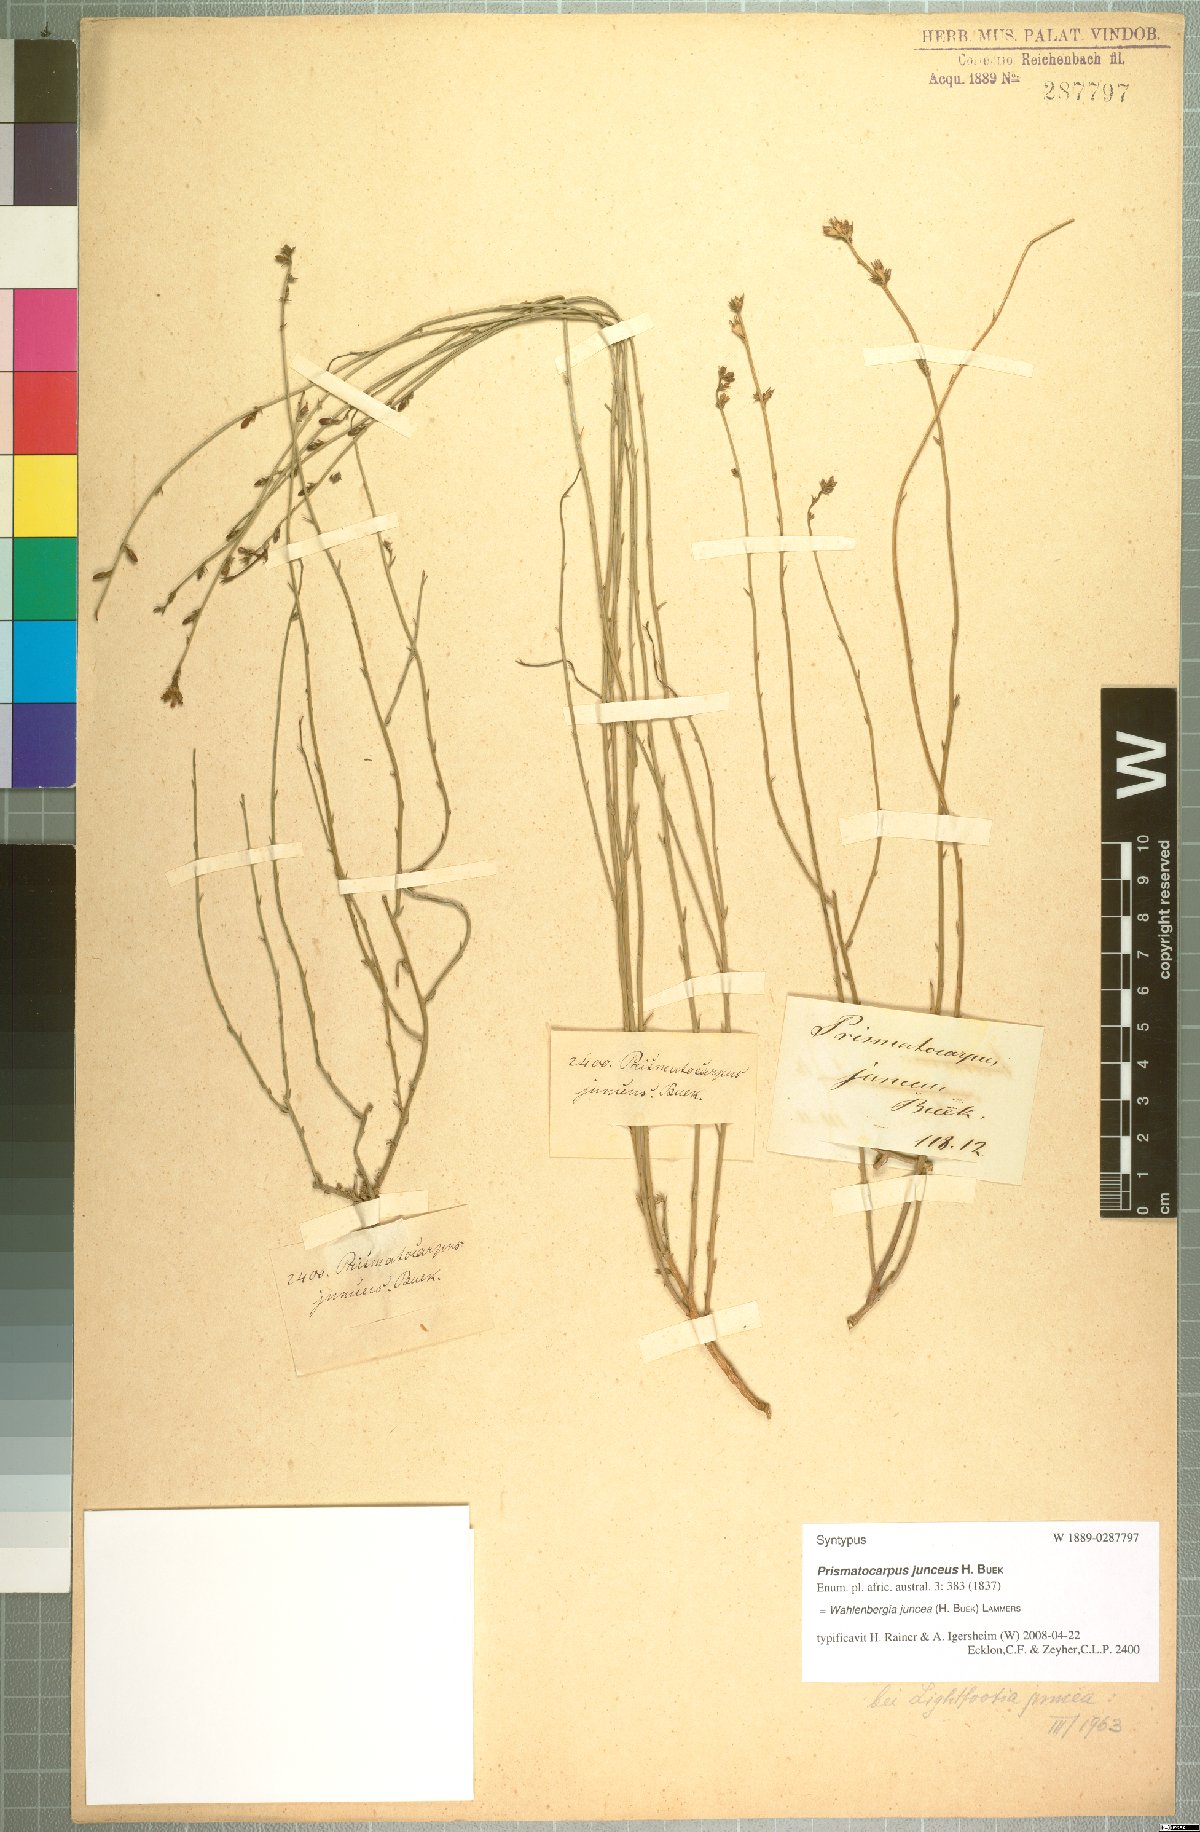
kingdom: Plantae
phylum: Tracheophyta
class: Magnoliopsida
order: Asterales
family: Campanulaceae
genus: Wahlenbergia
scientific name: Wahlenbergia juncea
